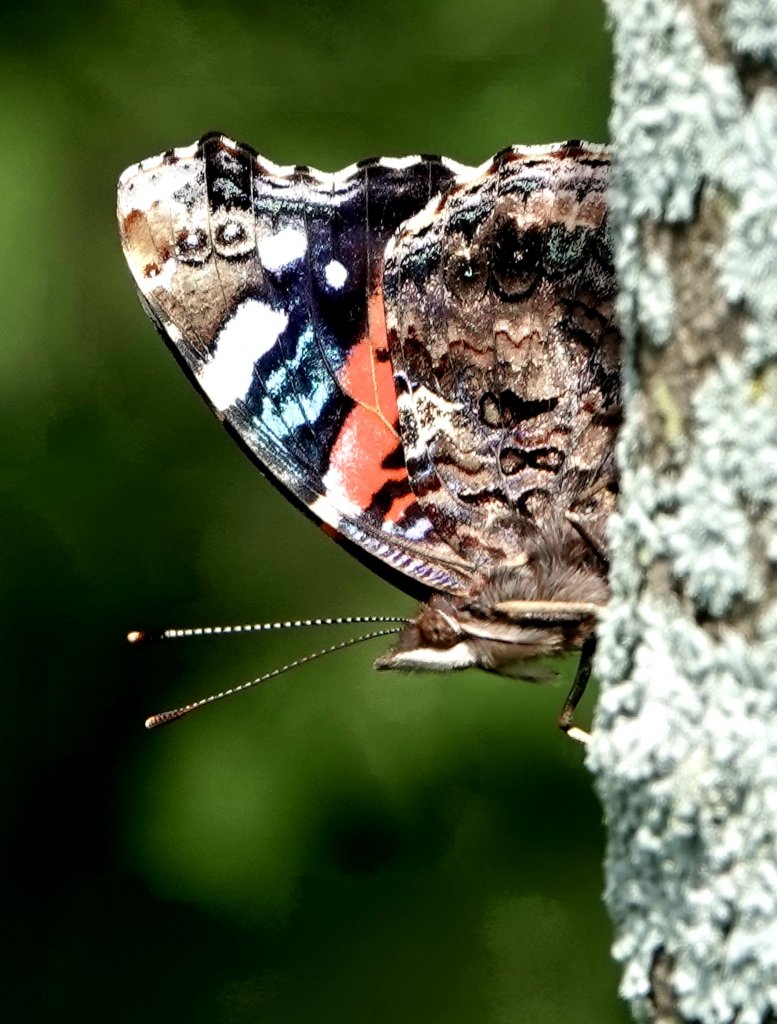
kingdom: Animalia
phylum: Arthropoda
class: Insecta
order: Lepidoptera
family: Nymphalidae
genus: Vanessa
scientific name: Vanessa atalanta
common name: Red Admiral
